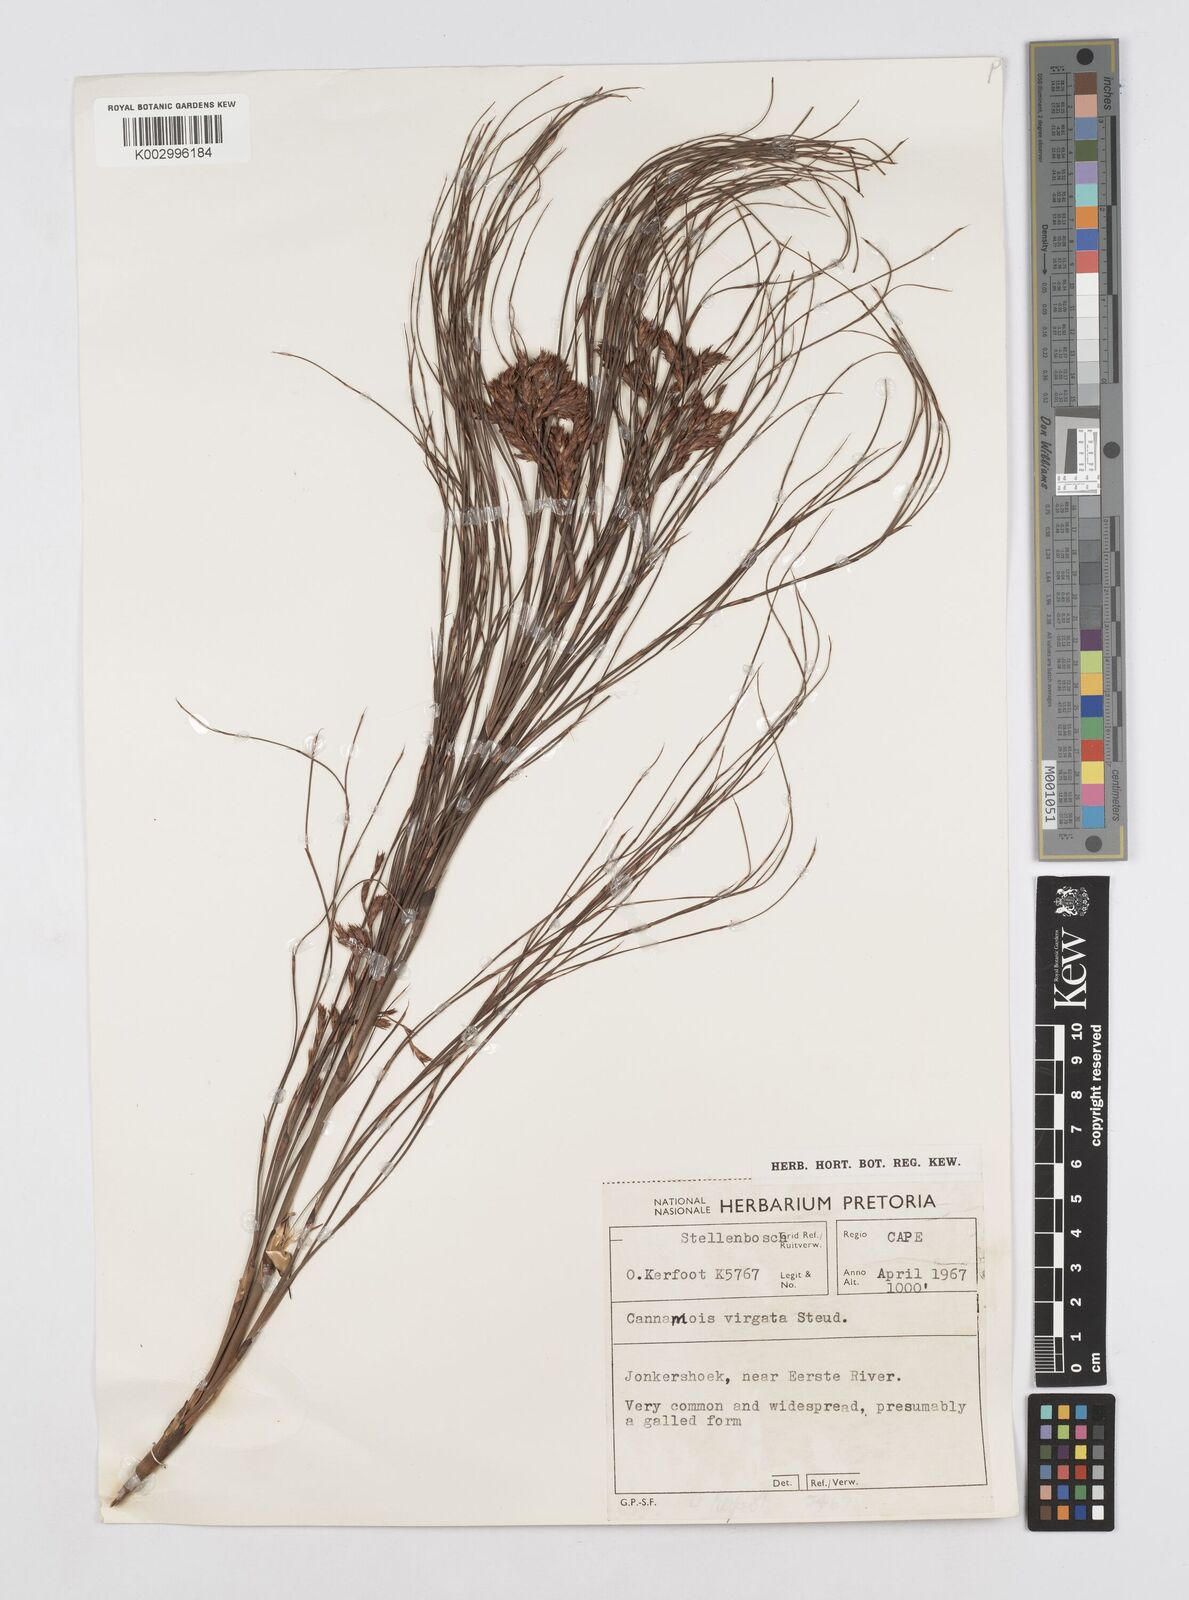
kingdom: Plantae
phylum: Tracheophyta
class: Liliopsida
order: Poales
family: Restionaceae
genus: Cannomois
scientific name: Cannomois virgata
